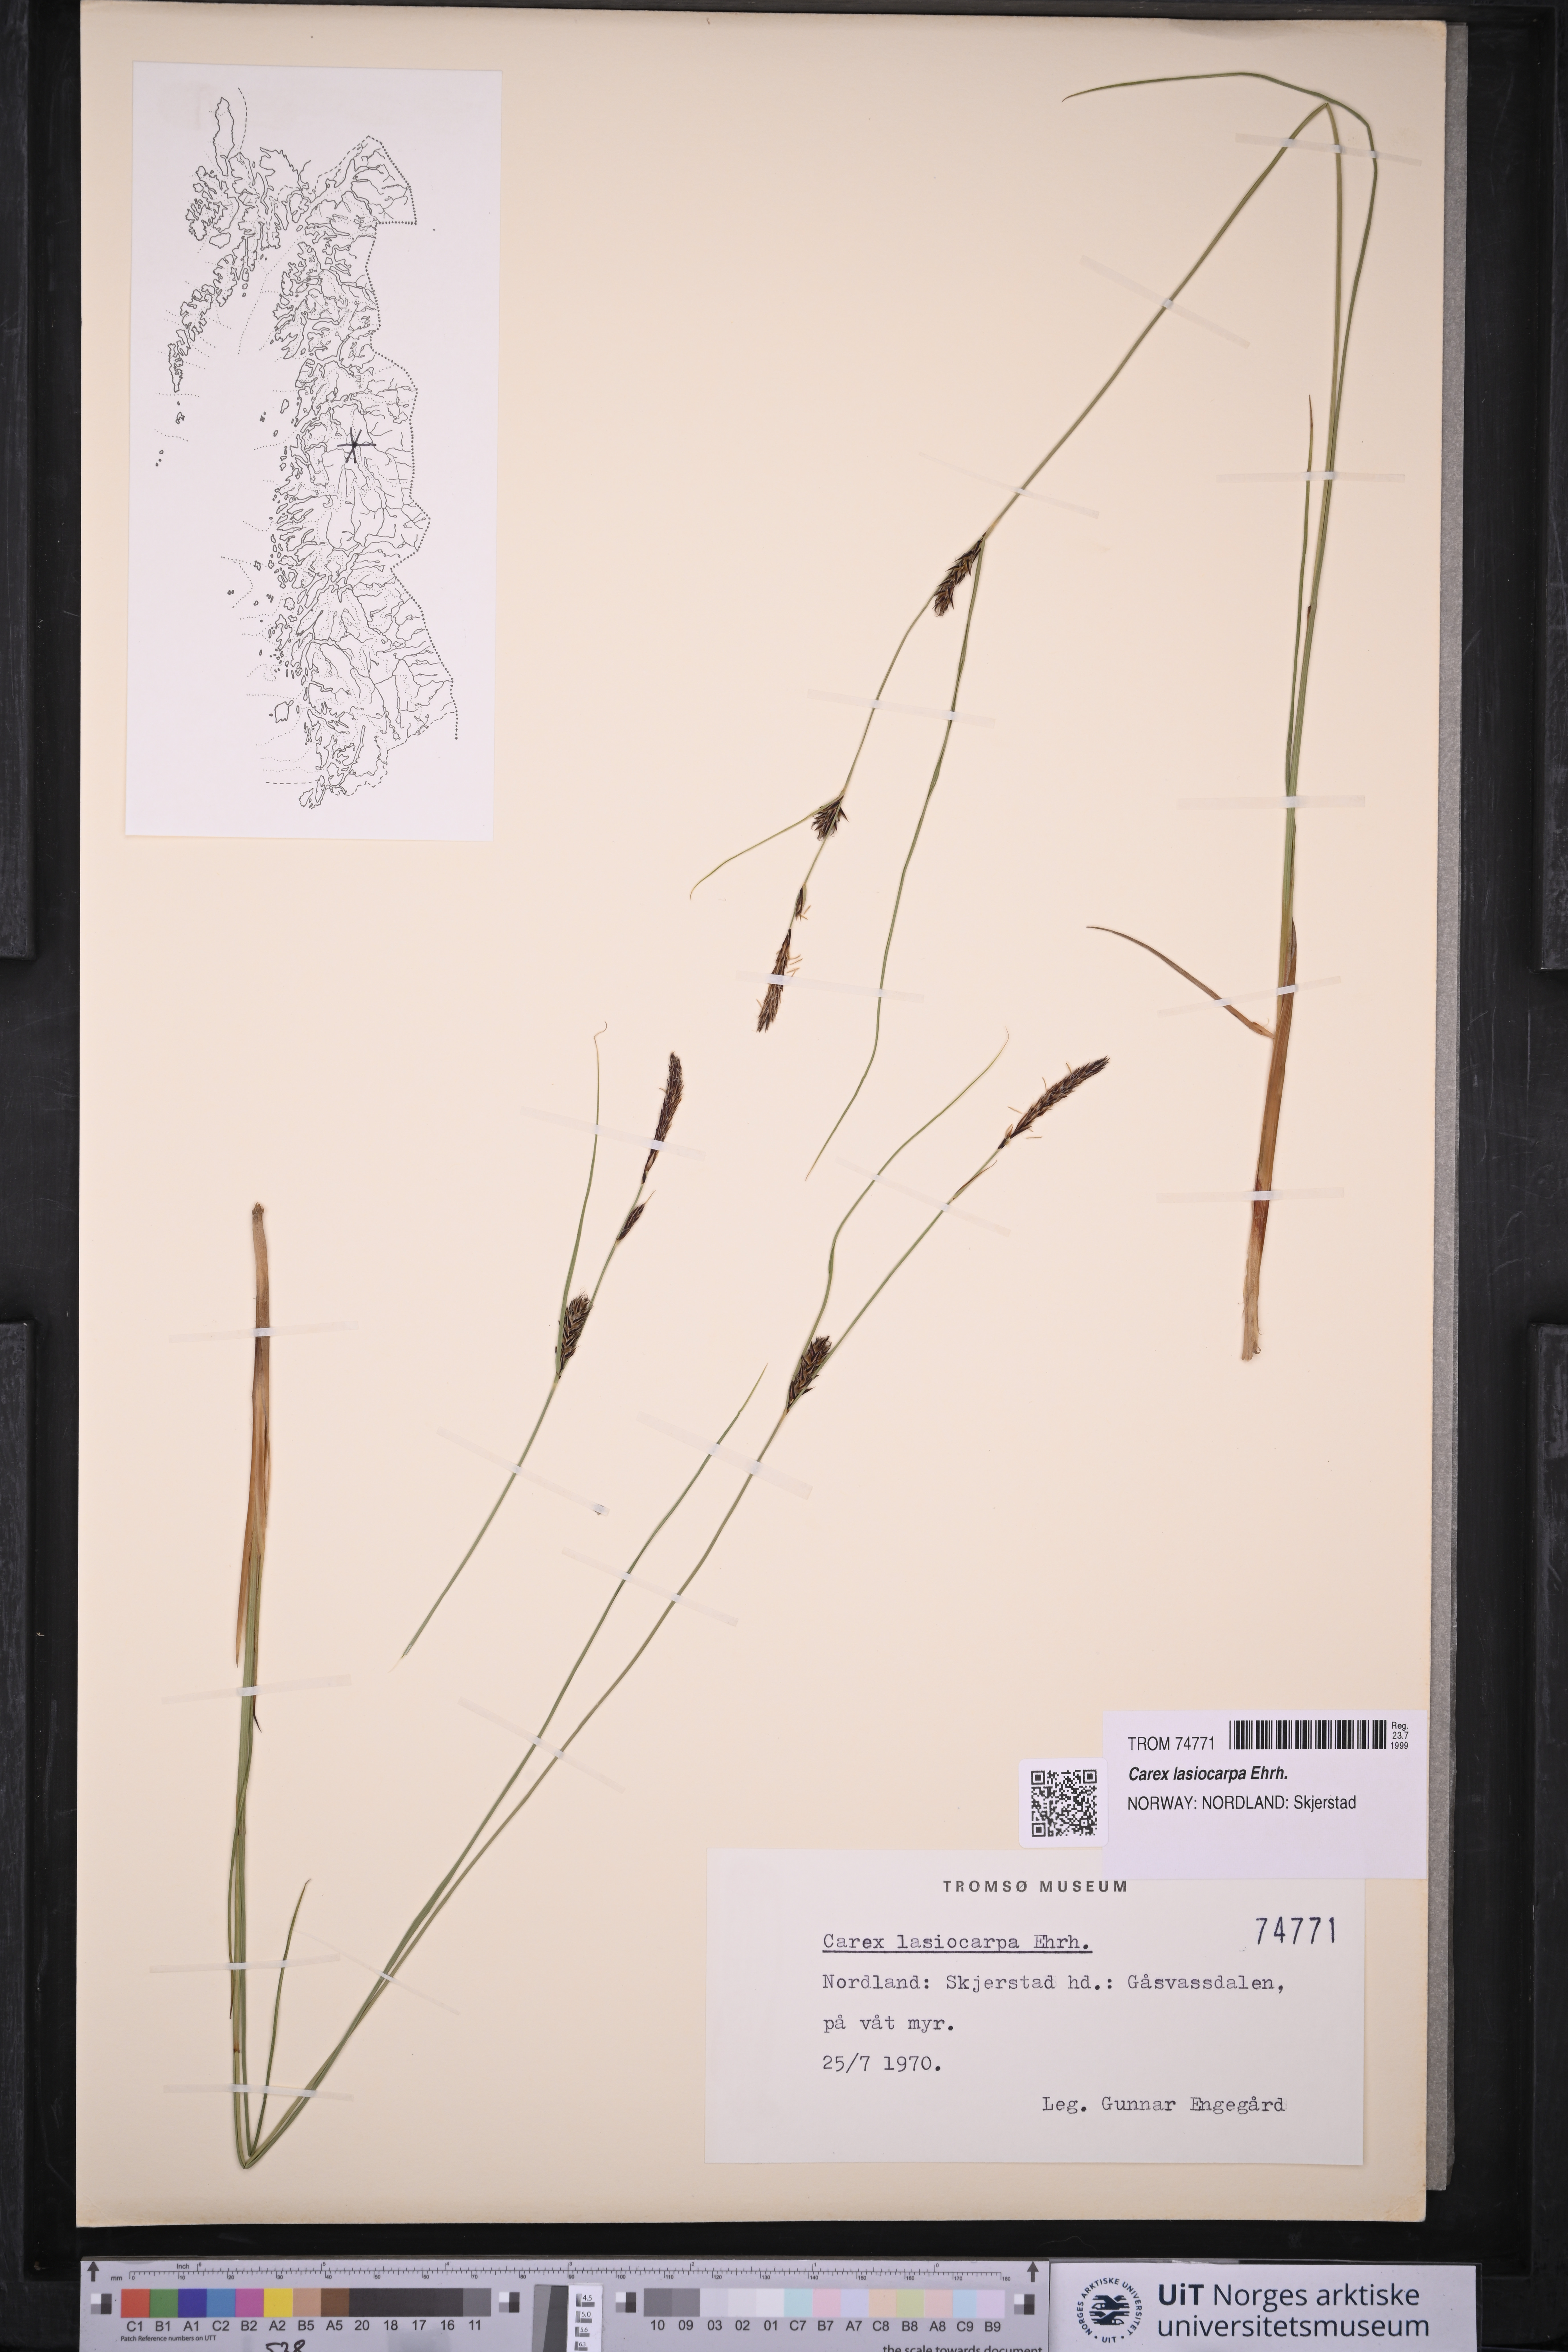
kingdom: Plantae
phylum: Tracheophyta
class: Liliopsida
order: Poales
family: Cyperaceae
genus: Carex
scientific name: Carex lasiocarpa
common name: Slender sedge
